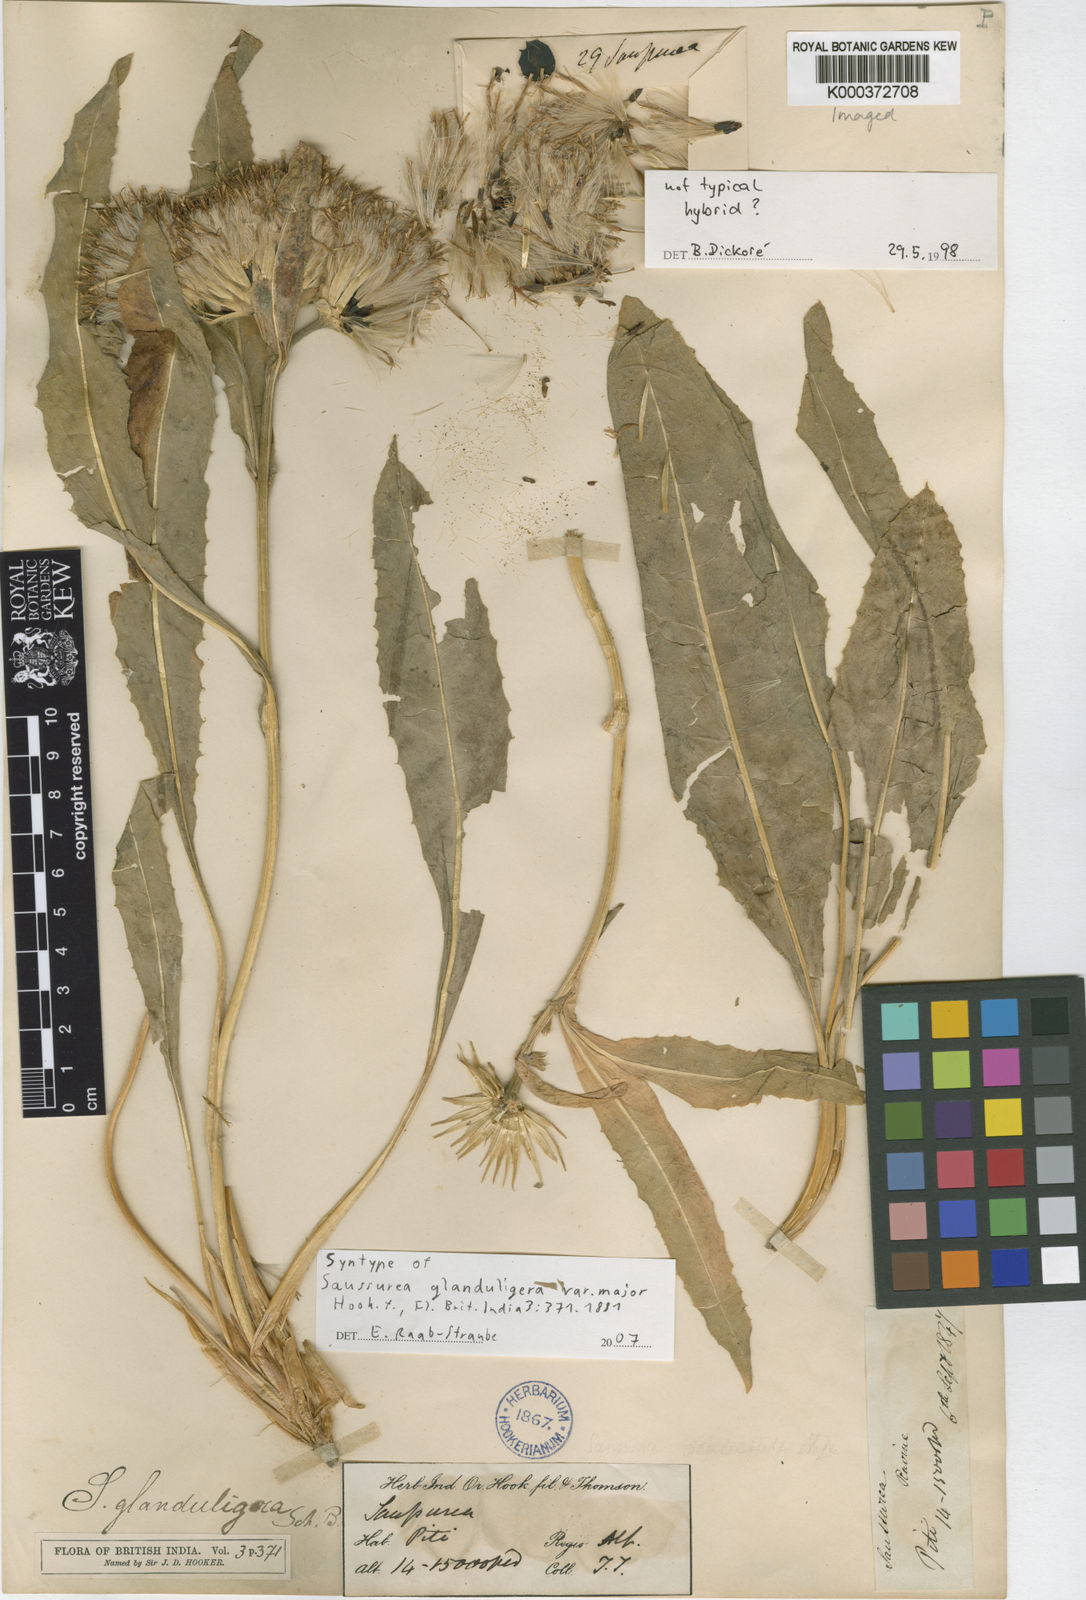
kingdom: Plantae
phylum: Tracheophyta
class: Magnoliopsida
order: Asterales
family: Asteraceae
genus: Saussurea
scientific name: Saussurea schlagintweitii
